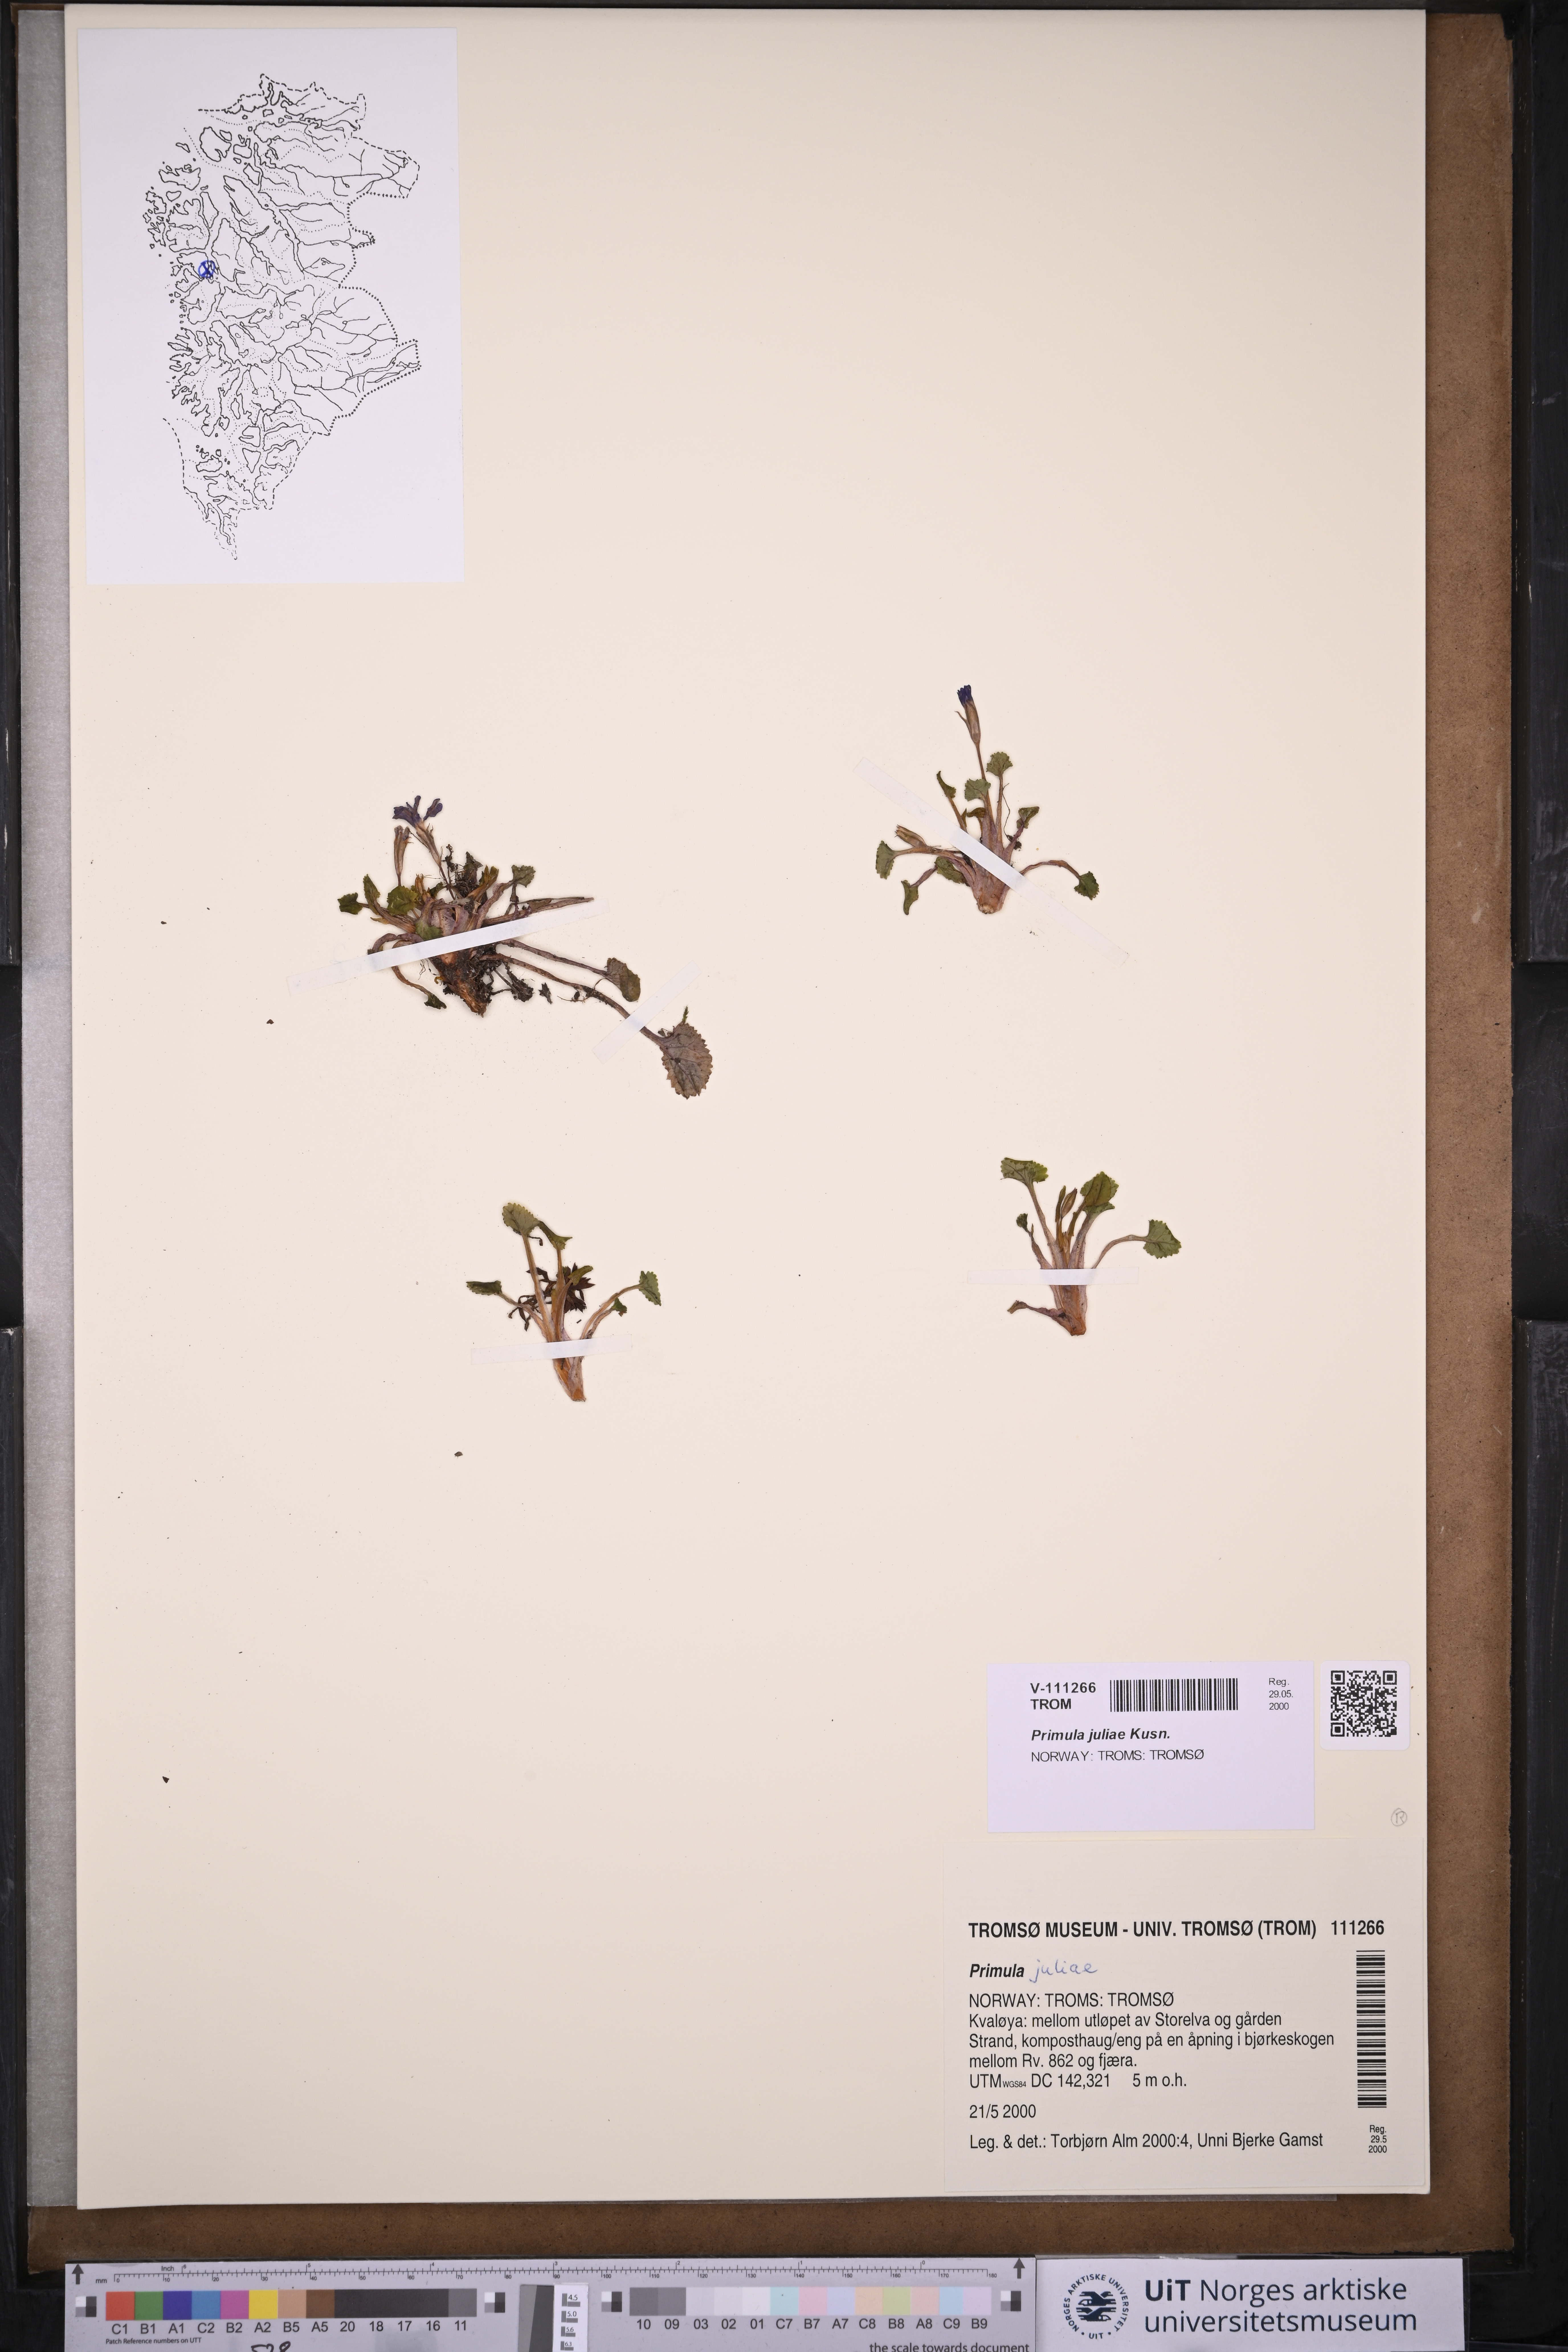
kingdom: Plantae
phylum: Tracheophyta
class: Magnoliopsida
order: Ericales
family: Primulaceae
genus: Primula
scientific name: Primula juliae
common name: Julia's primrose
